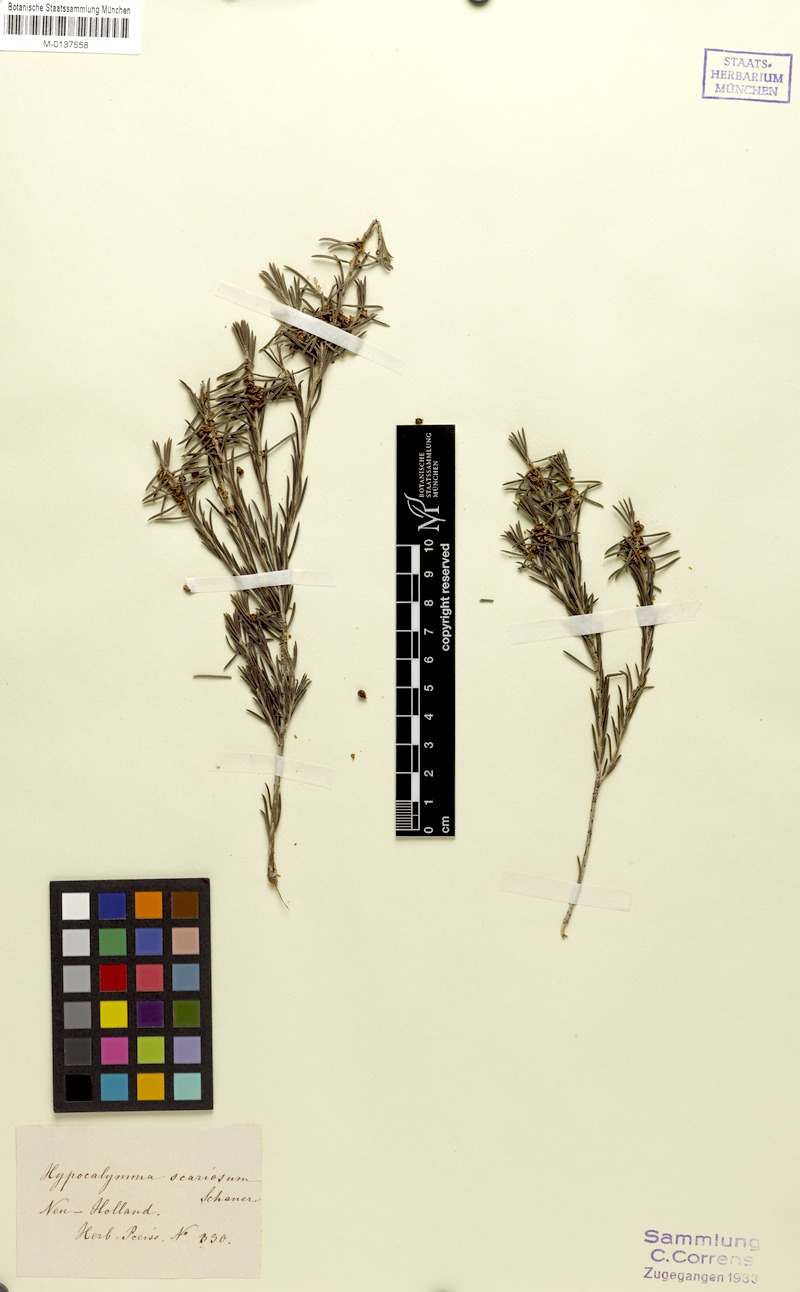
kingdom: Plantae
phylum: Tracheophyta
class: Magnoliopsida
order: Myrtales
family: Myrtaceae
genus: Hypocalymma
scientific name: Hypocalymma scariosum
